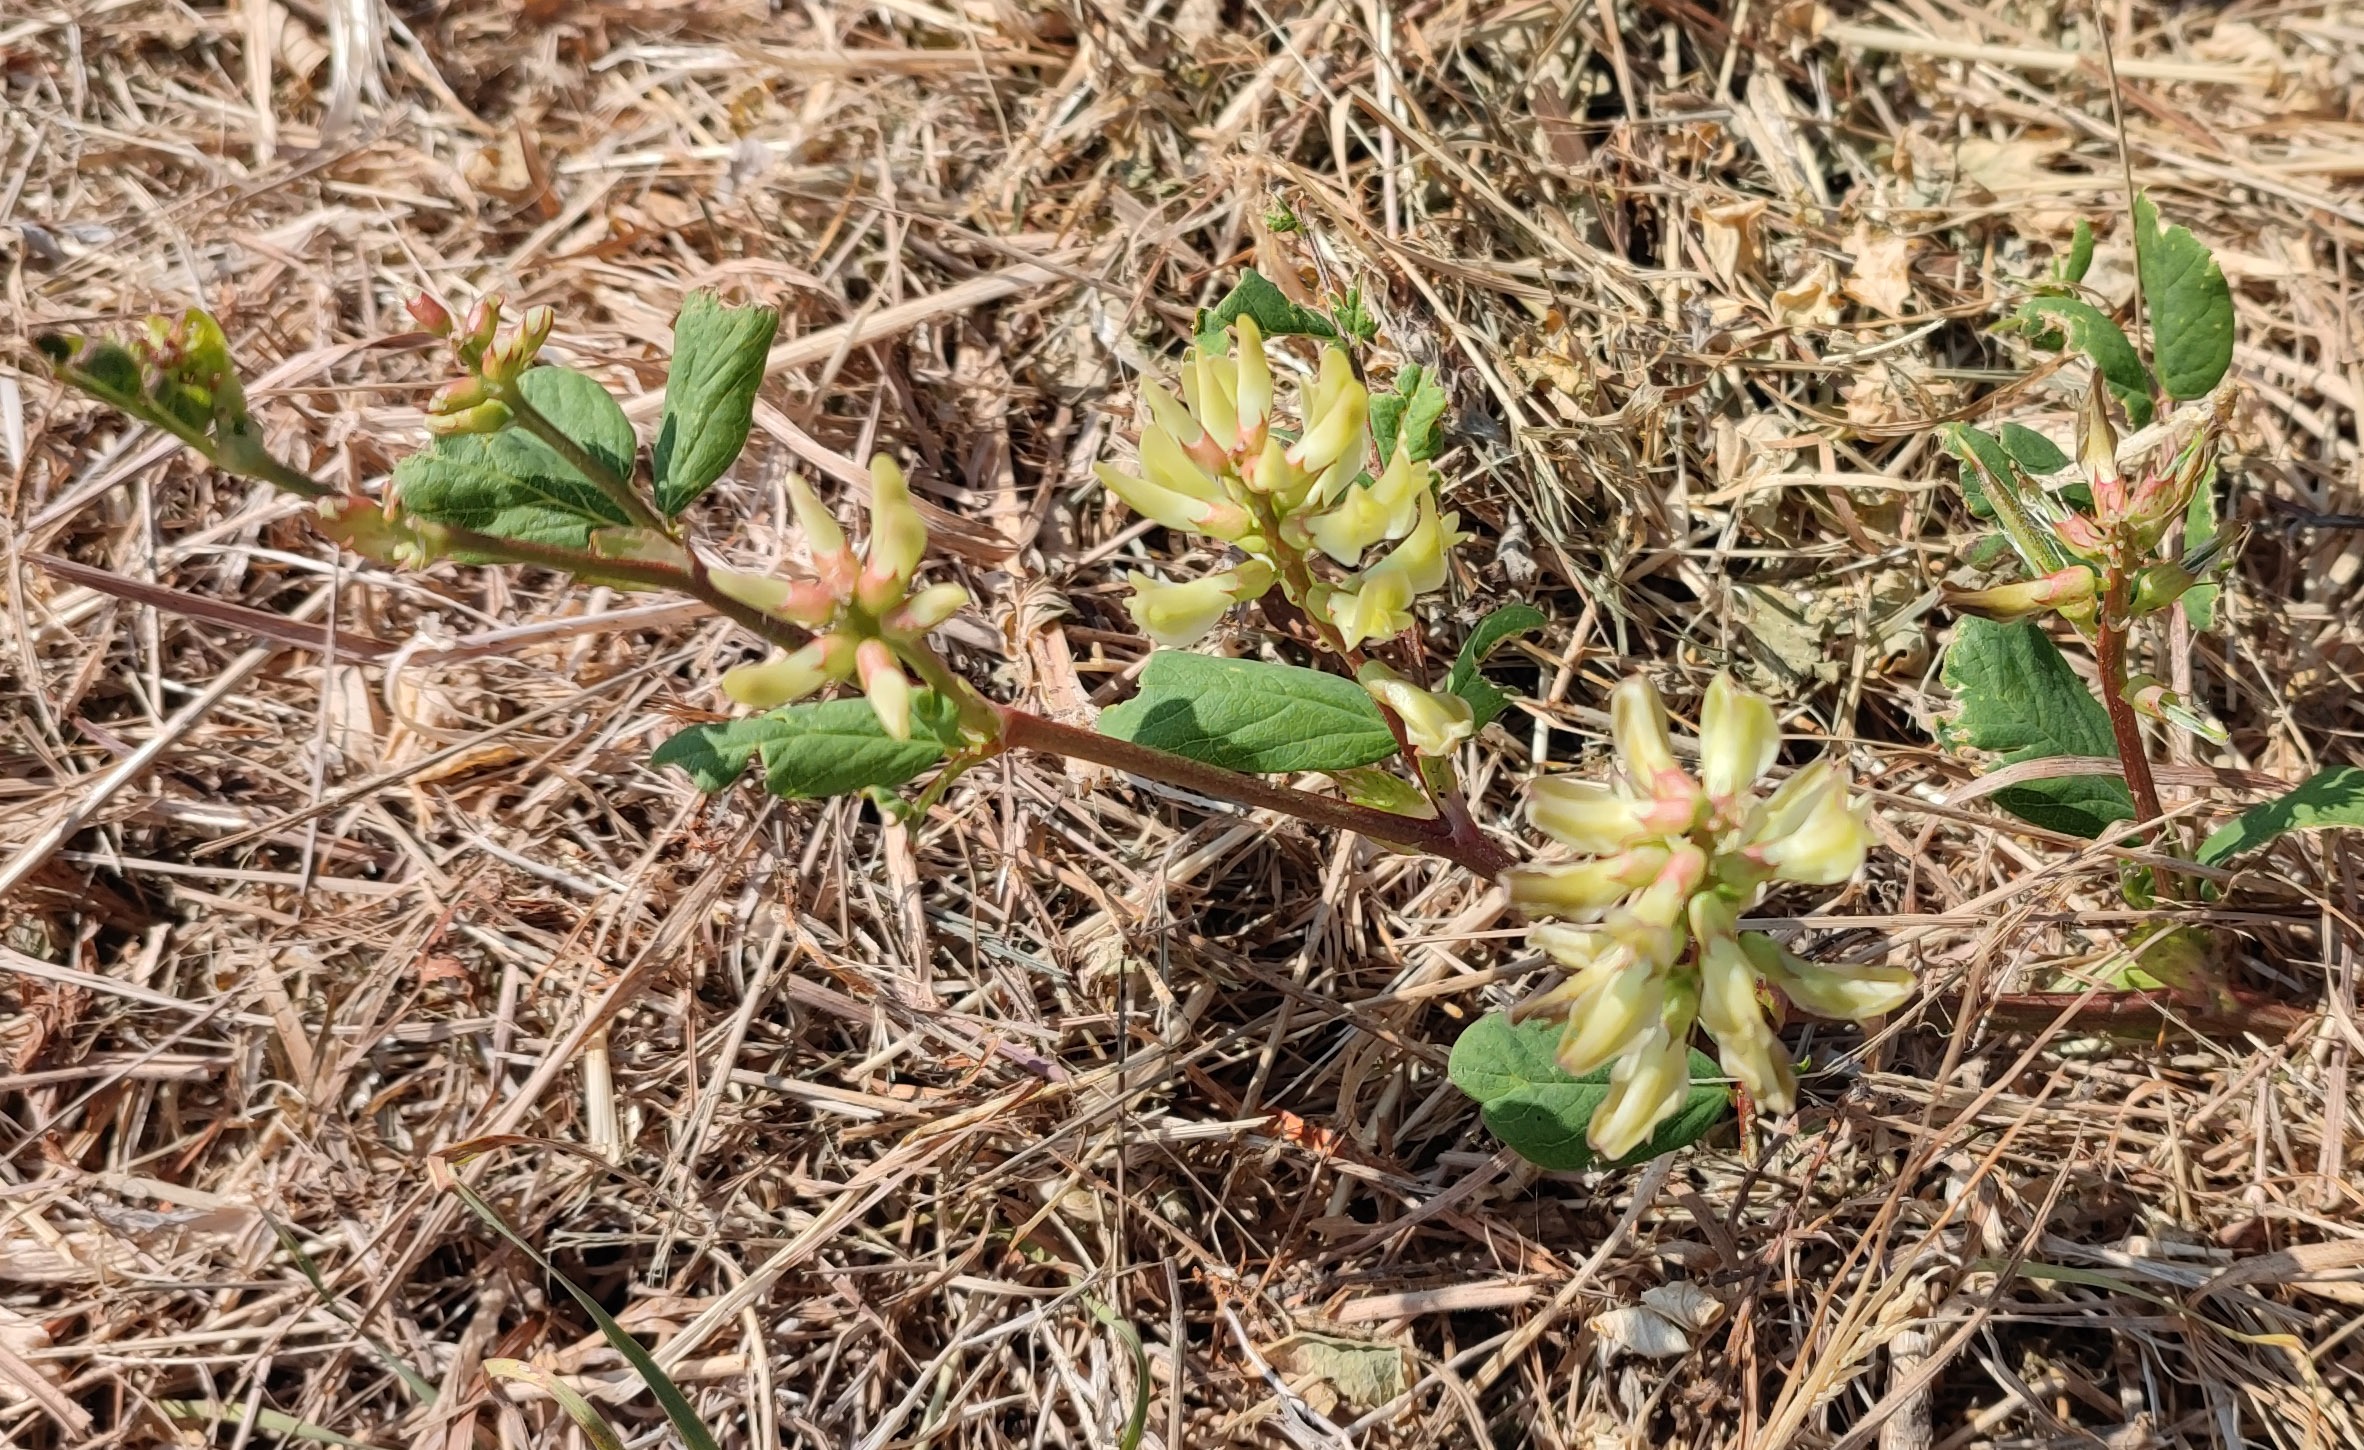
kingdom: Plantae
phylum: Tracheophyta
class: Magnoliopsida
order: Fabales
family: Fabaceae
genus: Astragalus
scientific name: Astragalus glycyphyllos
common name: Sød astragel
